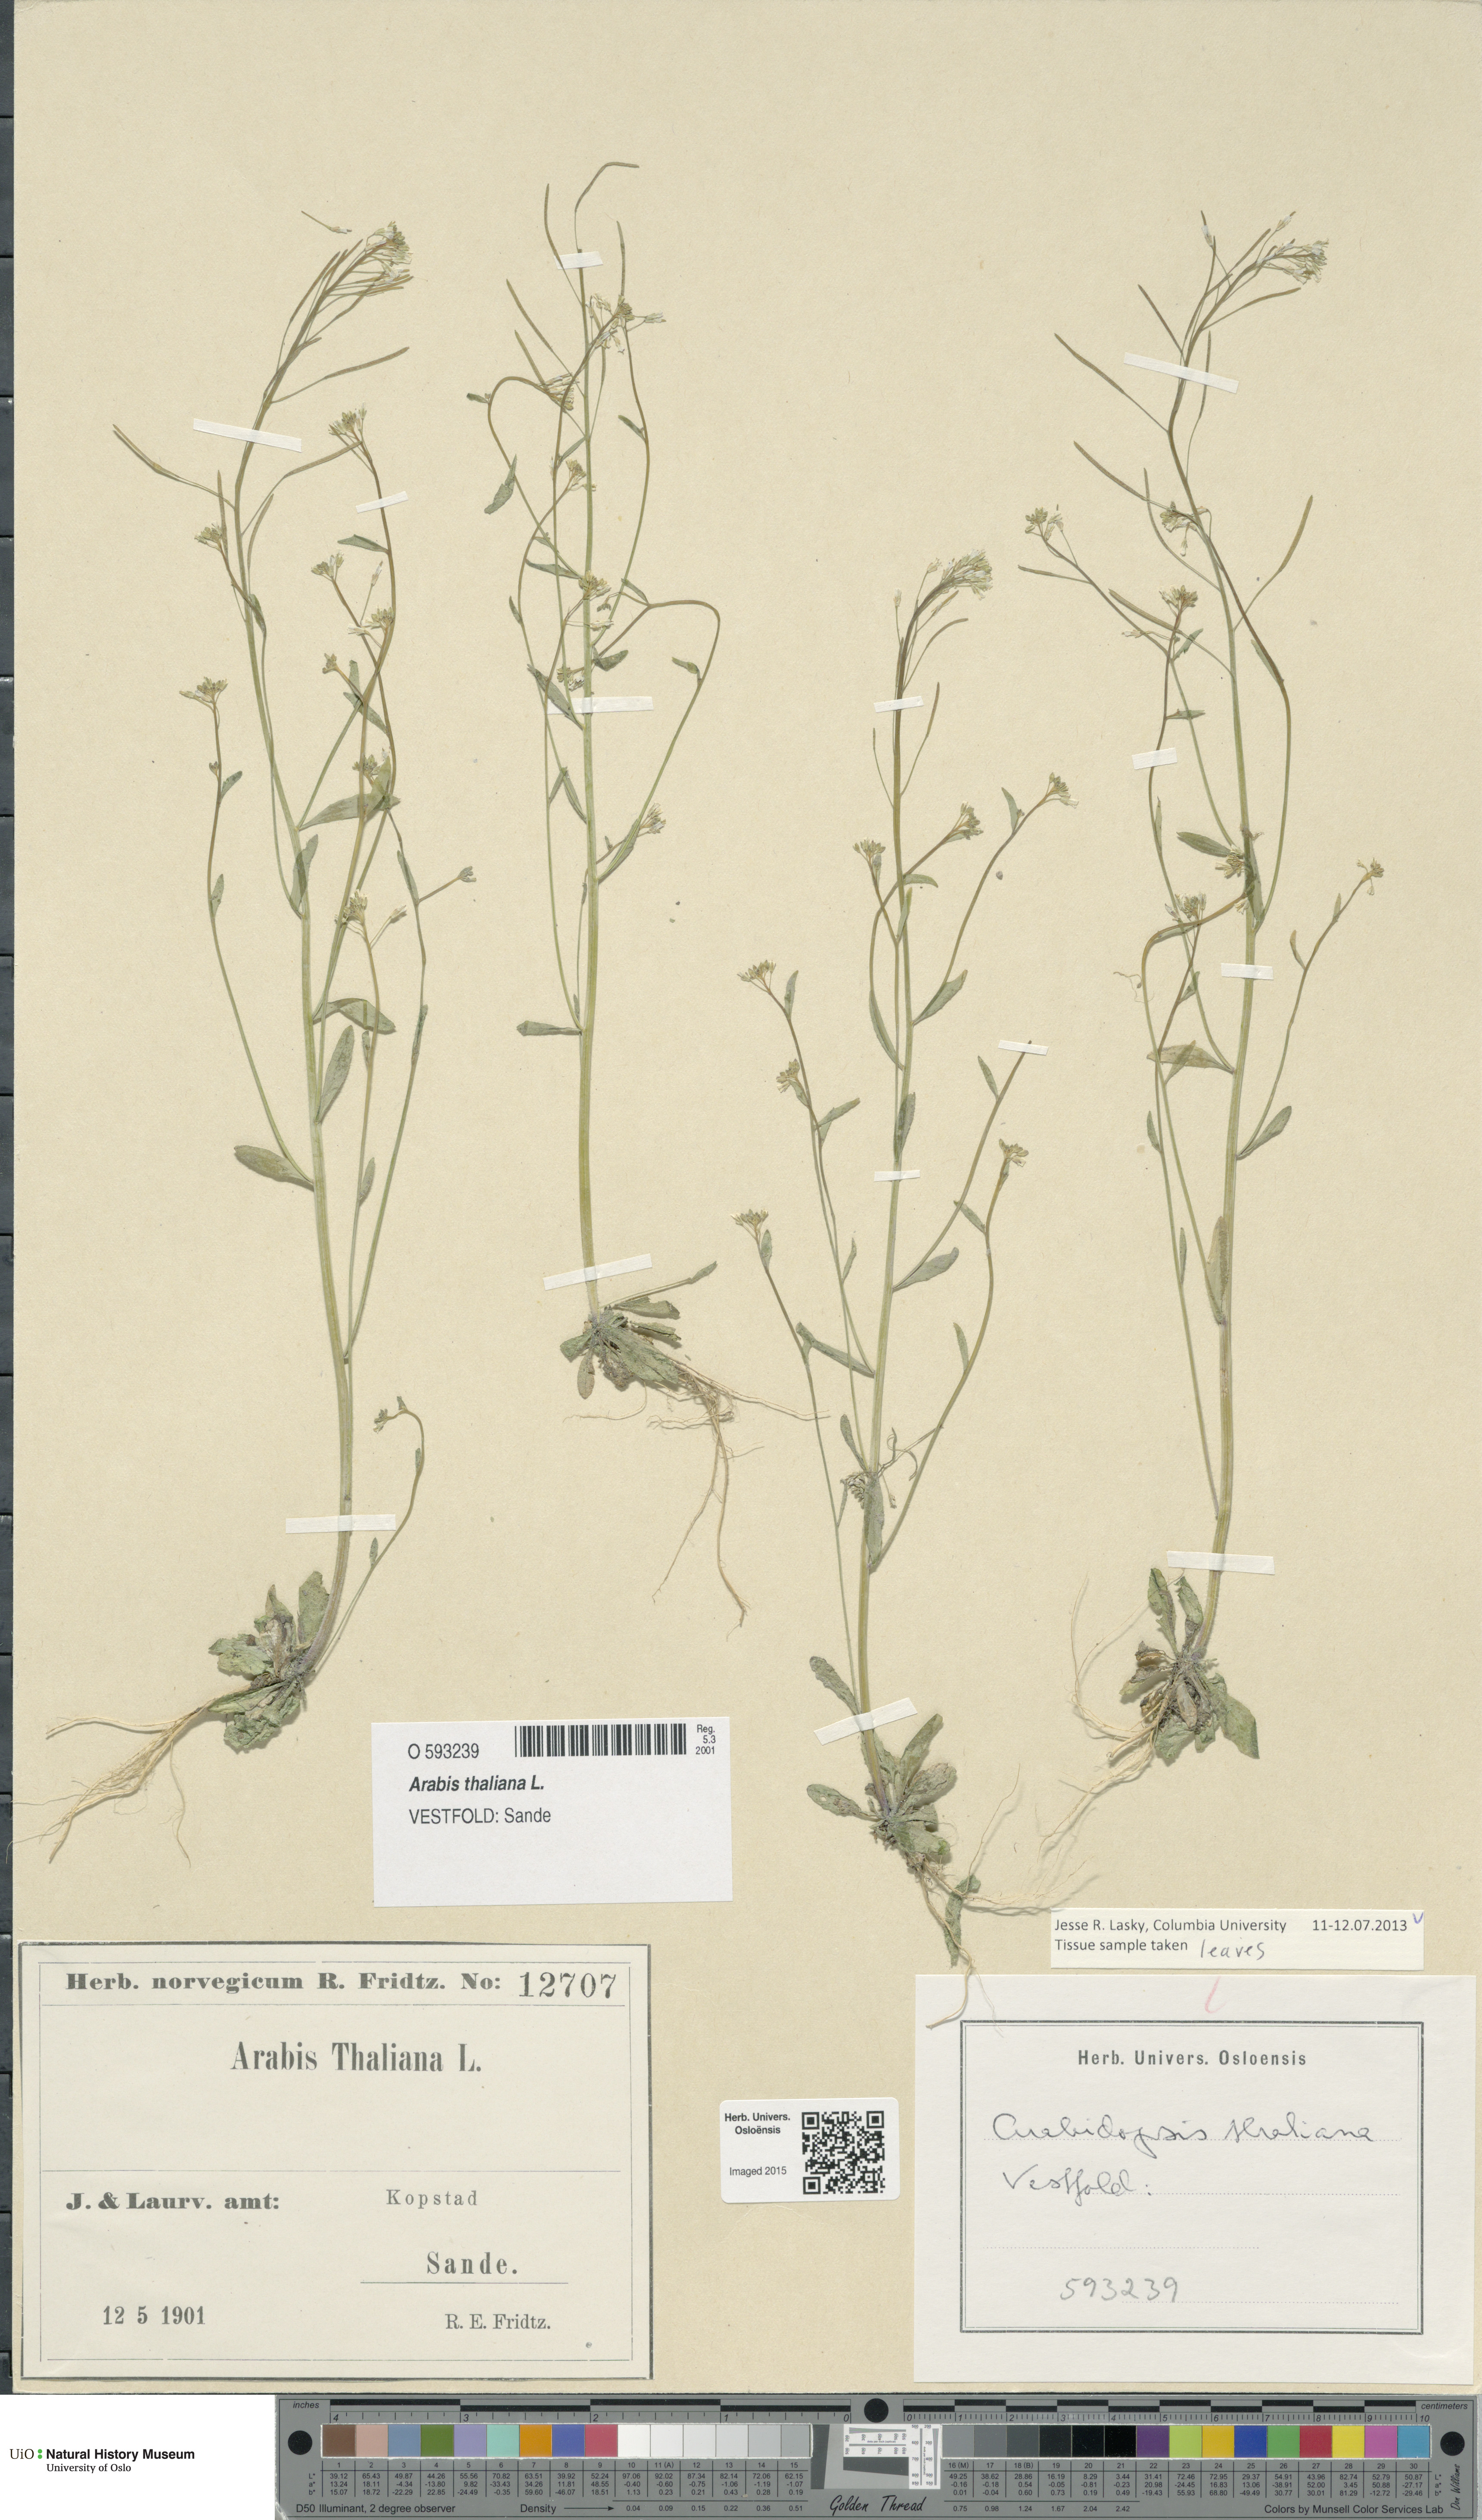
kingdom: Plantae
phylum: Tracheophyta
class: Magnoliopsida
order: Brassicales
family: Brassicaceae
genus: Arabidopsis
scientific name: Arabidopsis thaliana
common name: Thale cress
